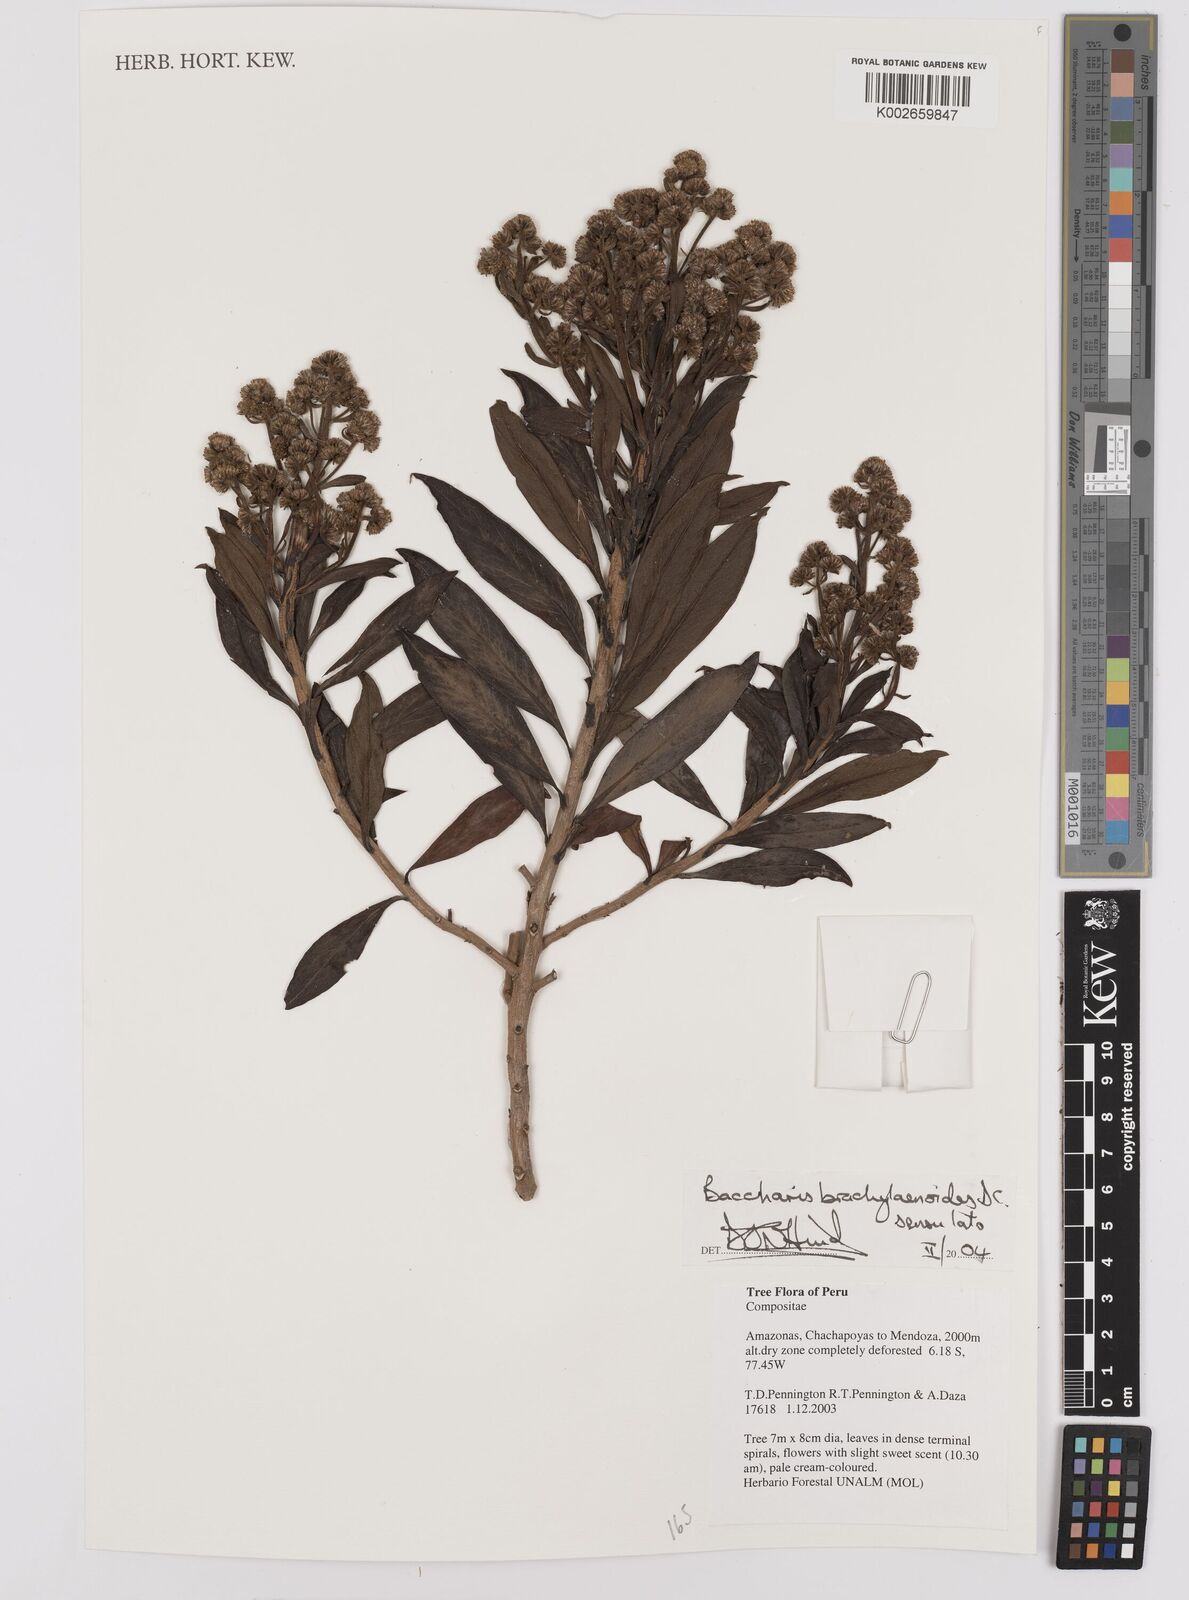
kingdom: Plantae
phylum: Tracheophyta
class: Magnoliopsida
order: Asterales
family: Asteraceae
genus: Baccharis
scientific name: Baccharis oblongifolia
